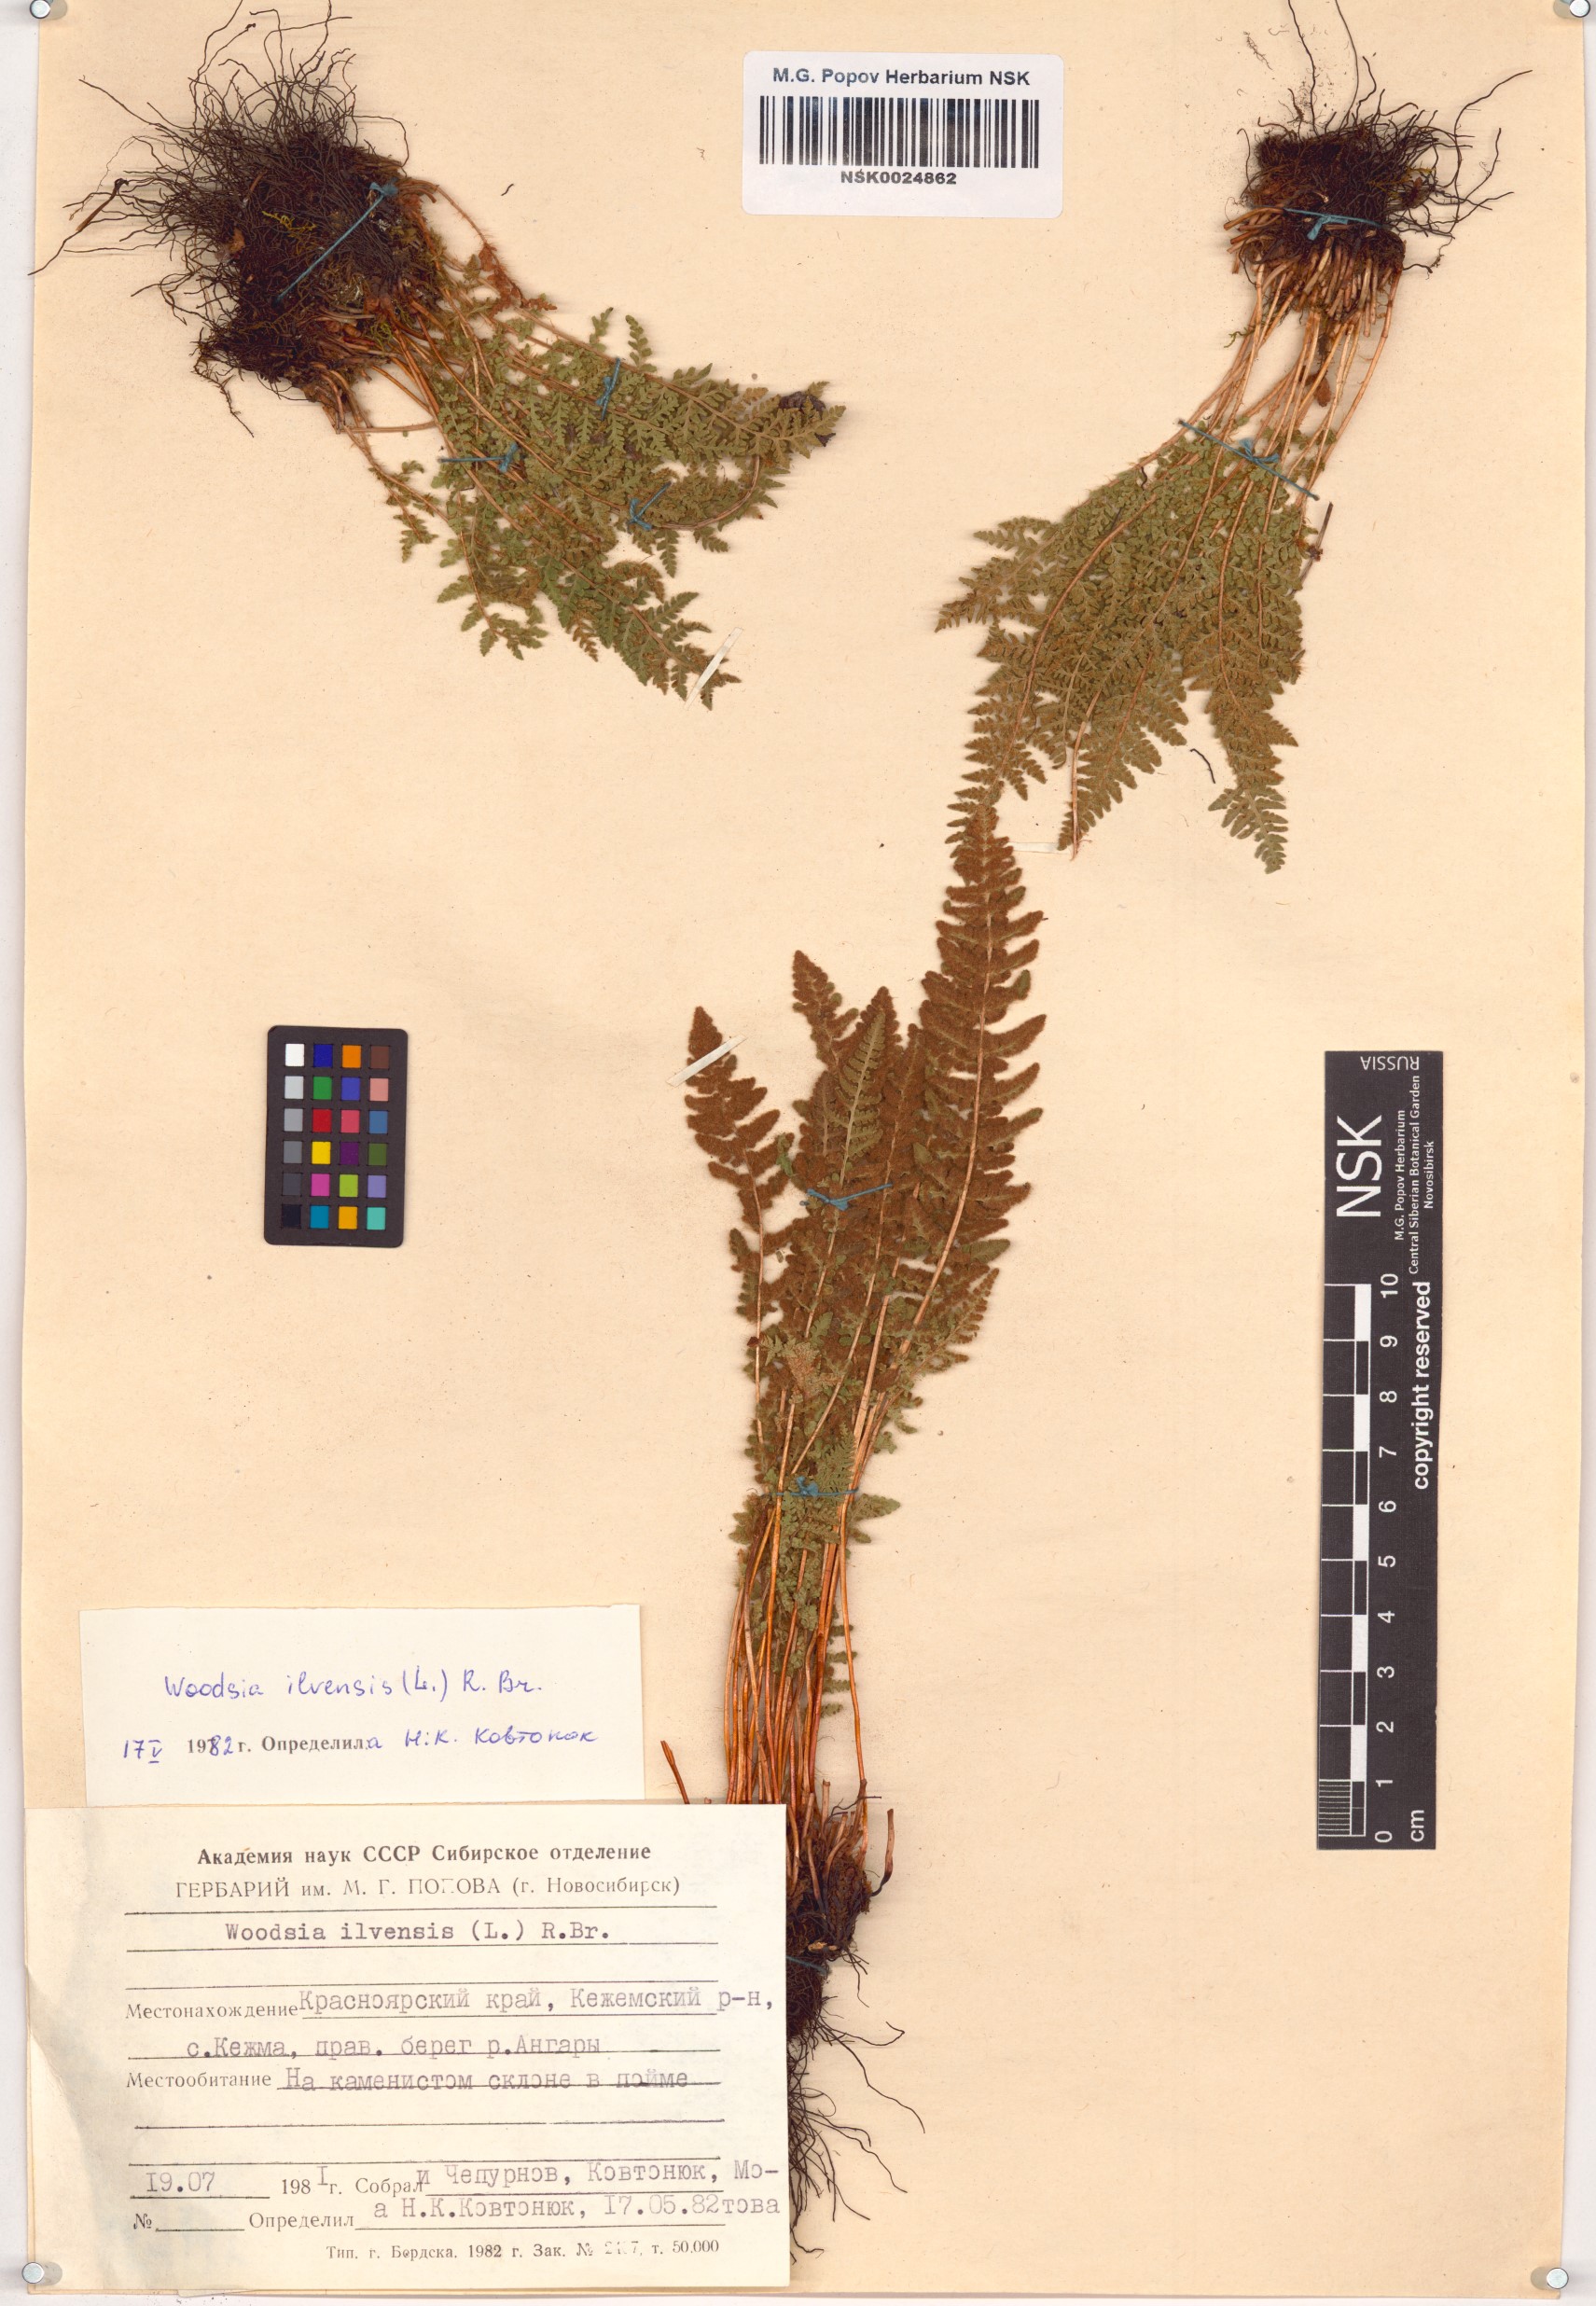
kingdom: Plantae
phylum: Tracheophyta
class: Polypodiopsida
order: Polypodiales
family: Woodsiaceae
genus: Woodsia
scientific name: Woodsia ilvensis
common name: Fragrant woodsia
